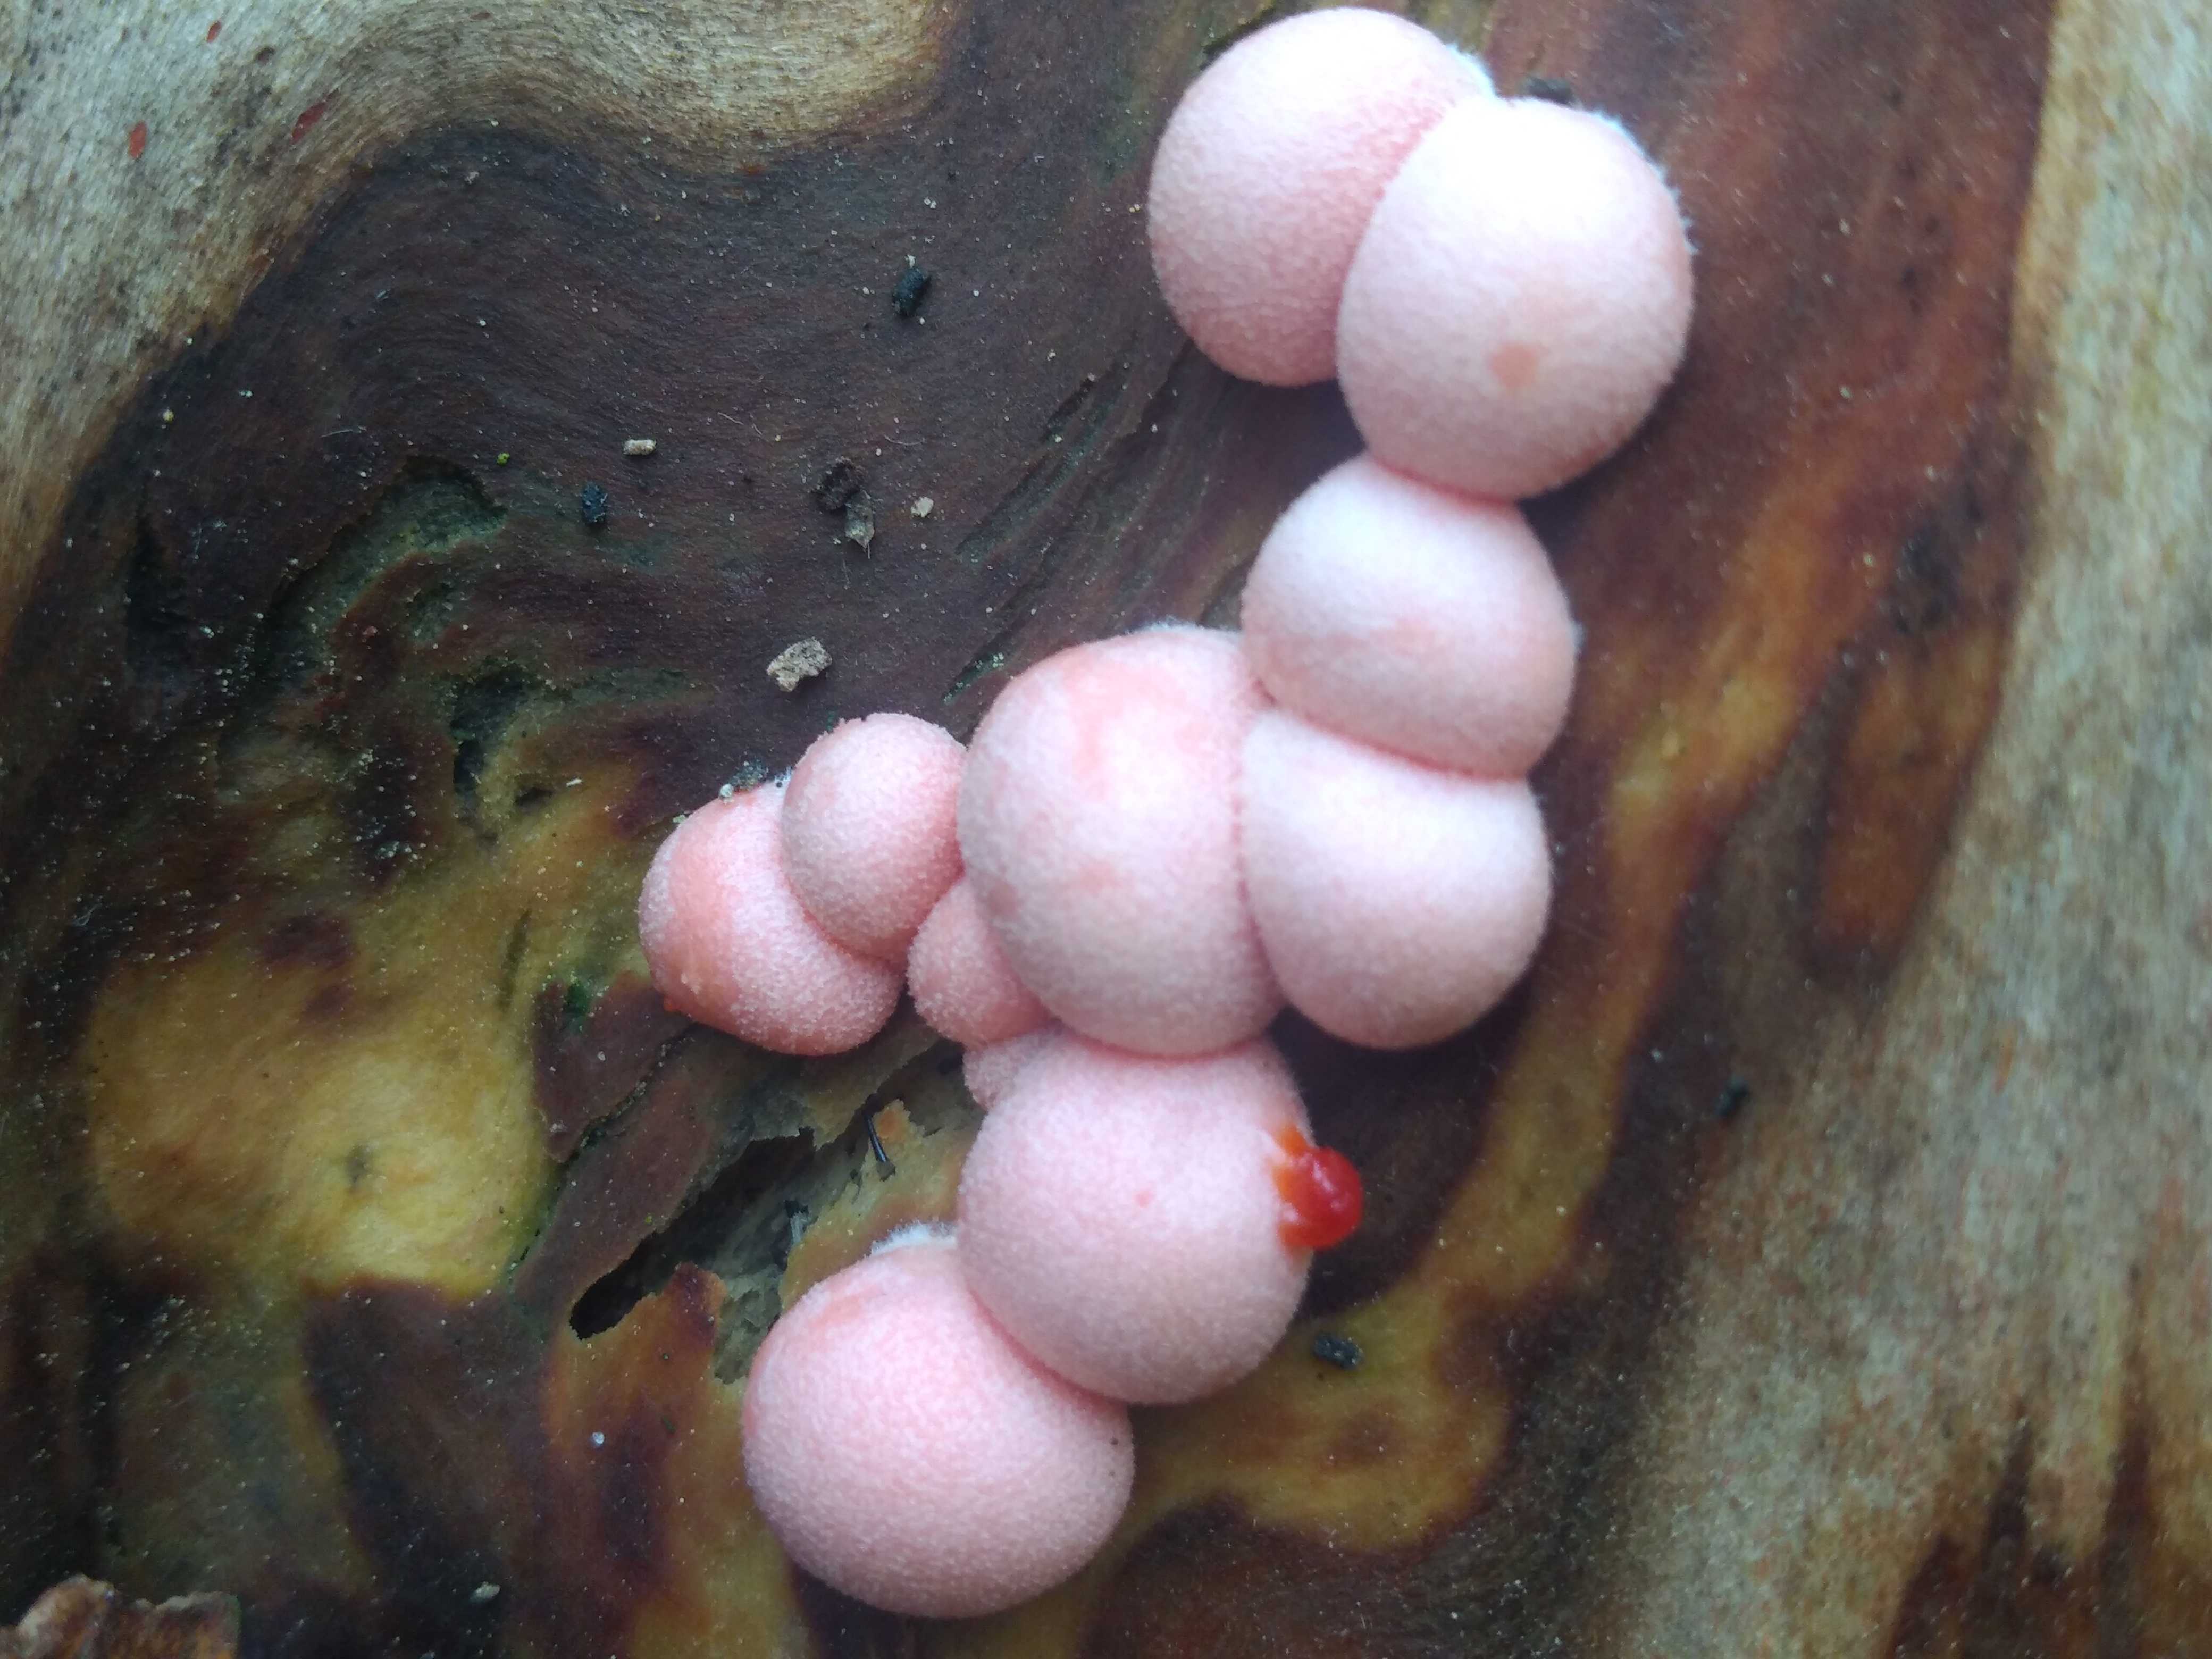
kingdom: Protozoa
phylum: Mycetozoa
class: Myxomycetes
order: Cribrariales
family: Tubiferaceae
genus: Lycogala
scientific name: Lycogala epidendrum
